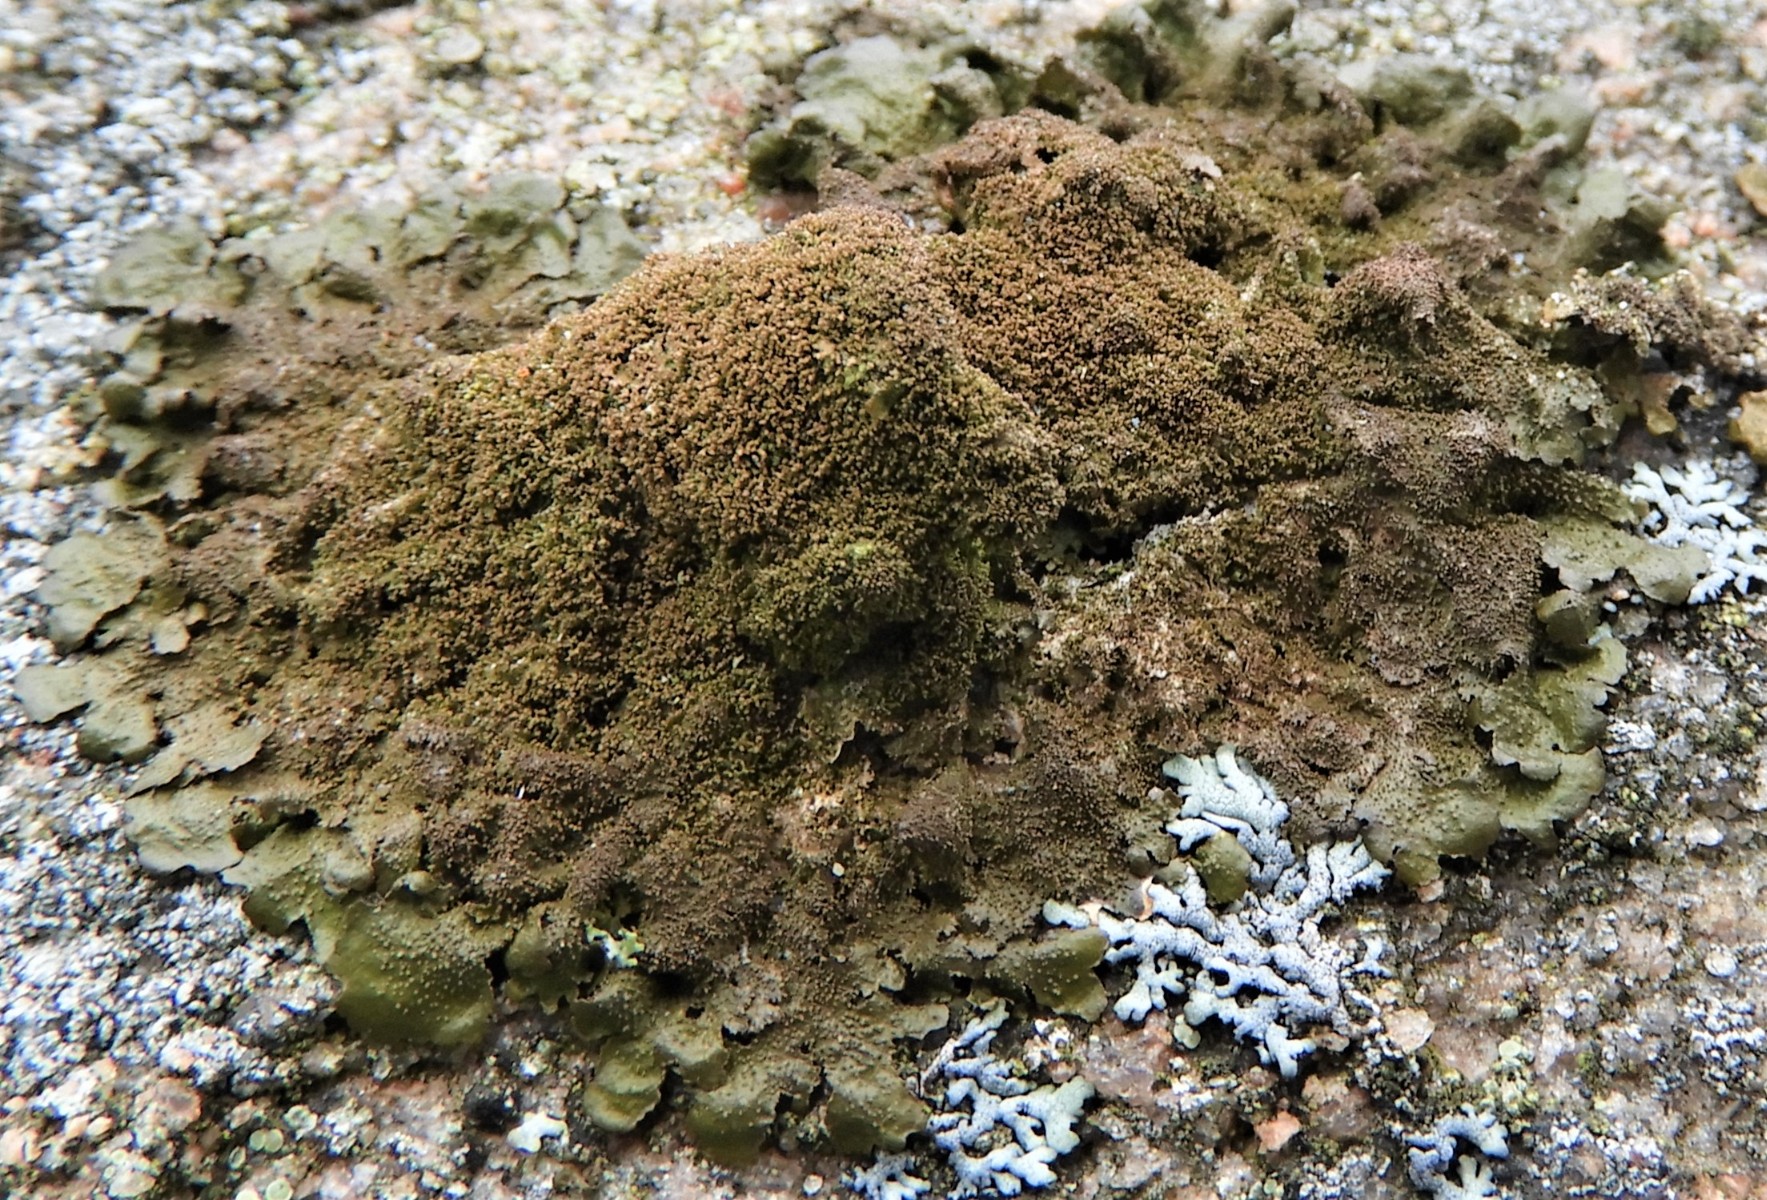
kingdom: Fungi
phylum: Ascomycota
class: Lecanoromycetes
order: Lecanorales
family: Parmeliaceae
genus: Melanelixia
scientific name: Melanelixia glabratula
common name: glinsende skållav
